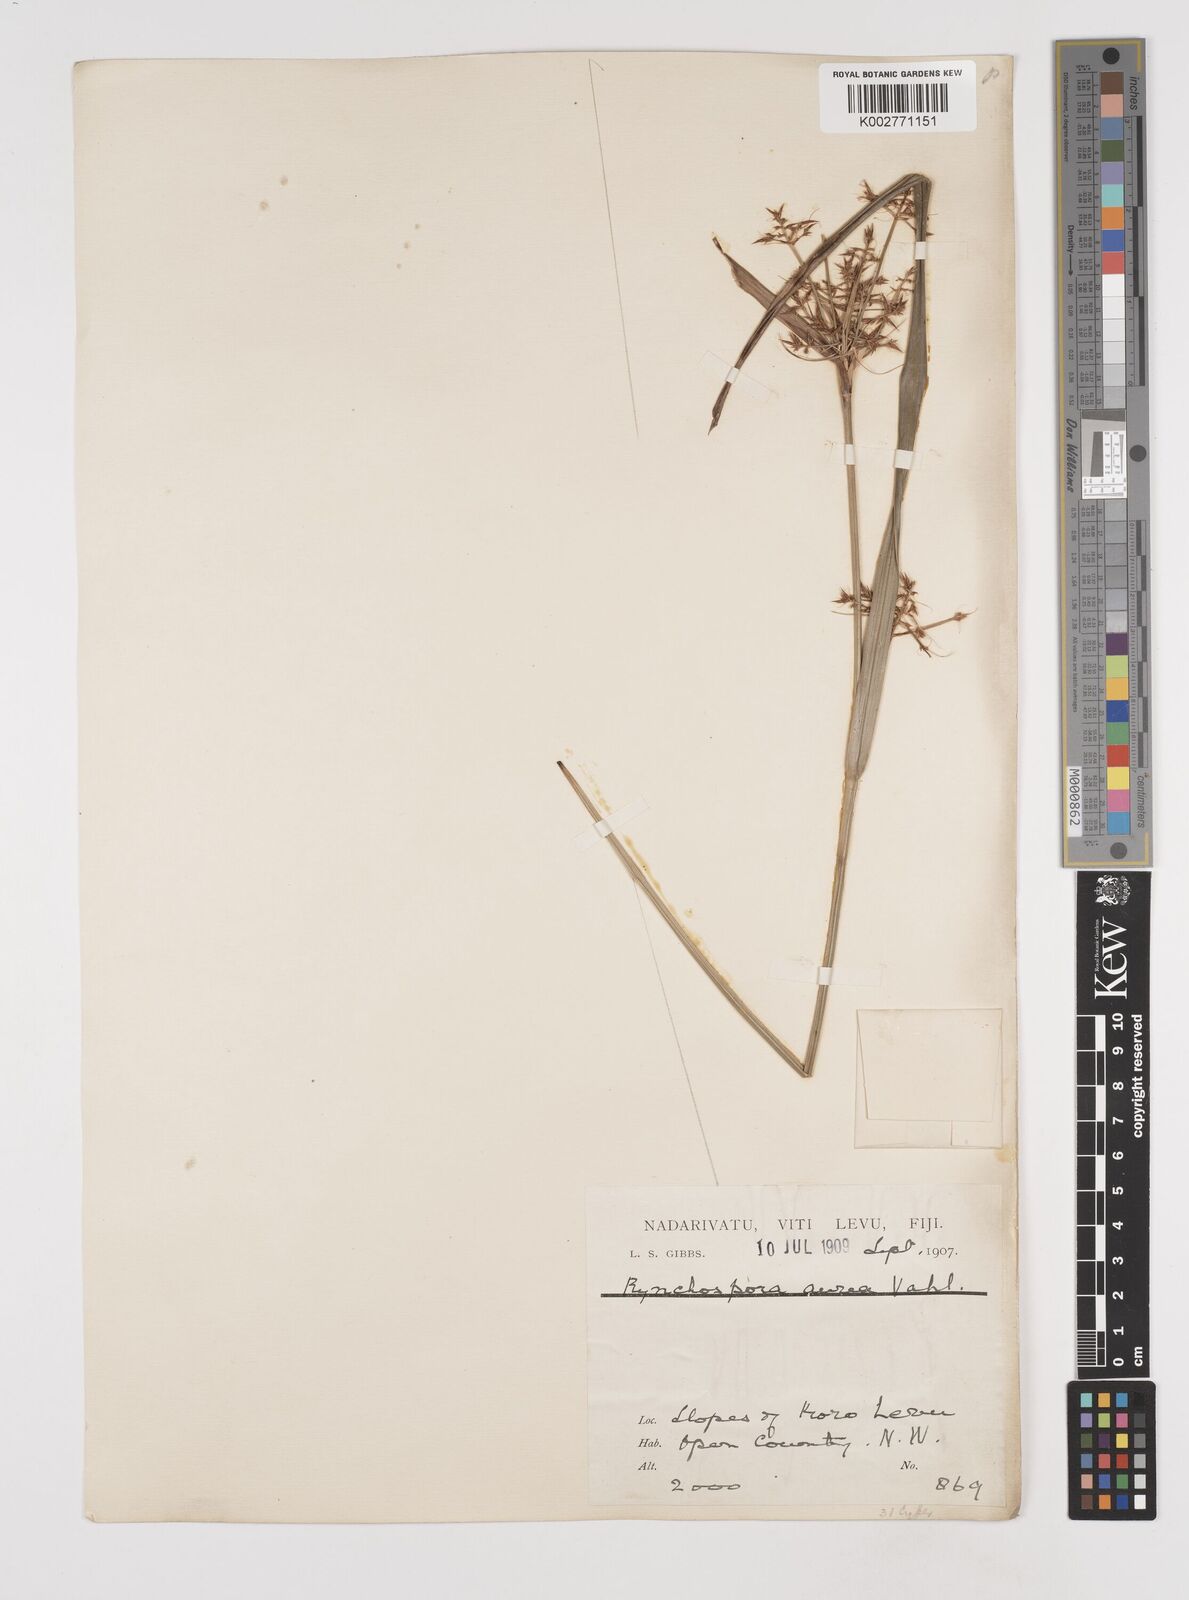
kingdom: Plantae
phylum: Tracheophyta
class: Liliopsida
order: Poales
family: Cyperaceae
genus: Rhynchospora
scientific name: Rhynchospora corymbosa
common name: Golden beak sedge
